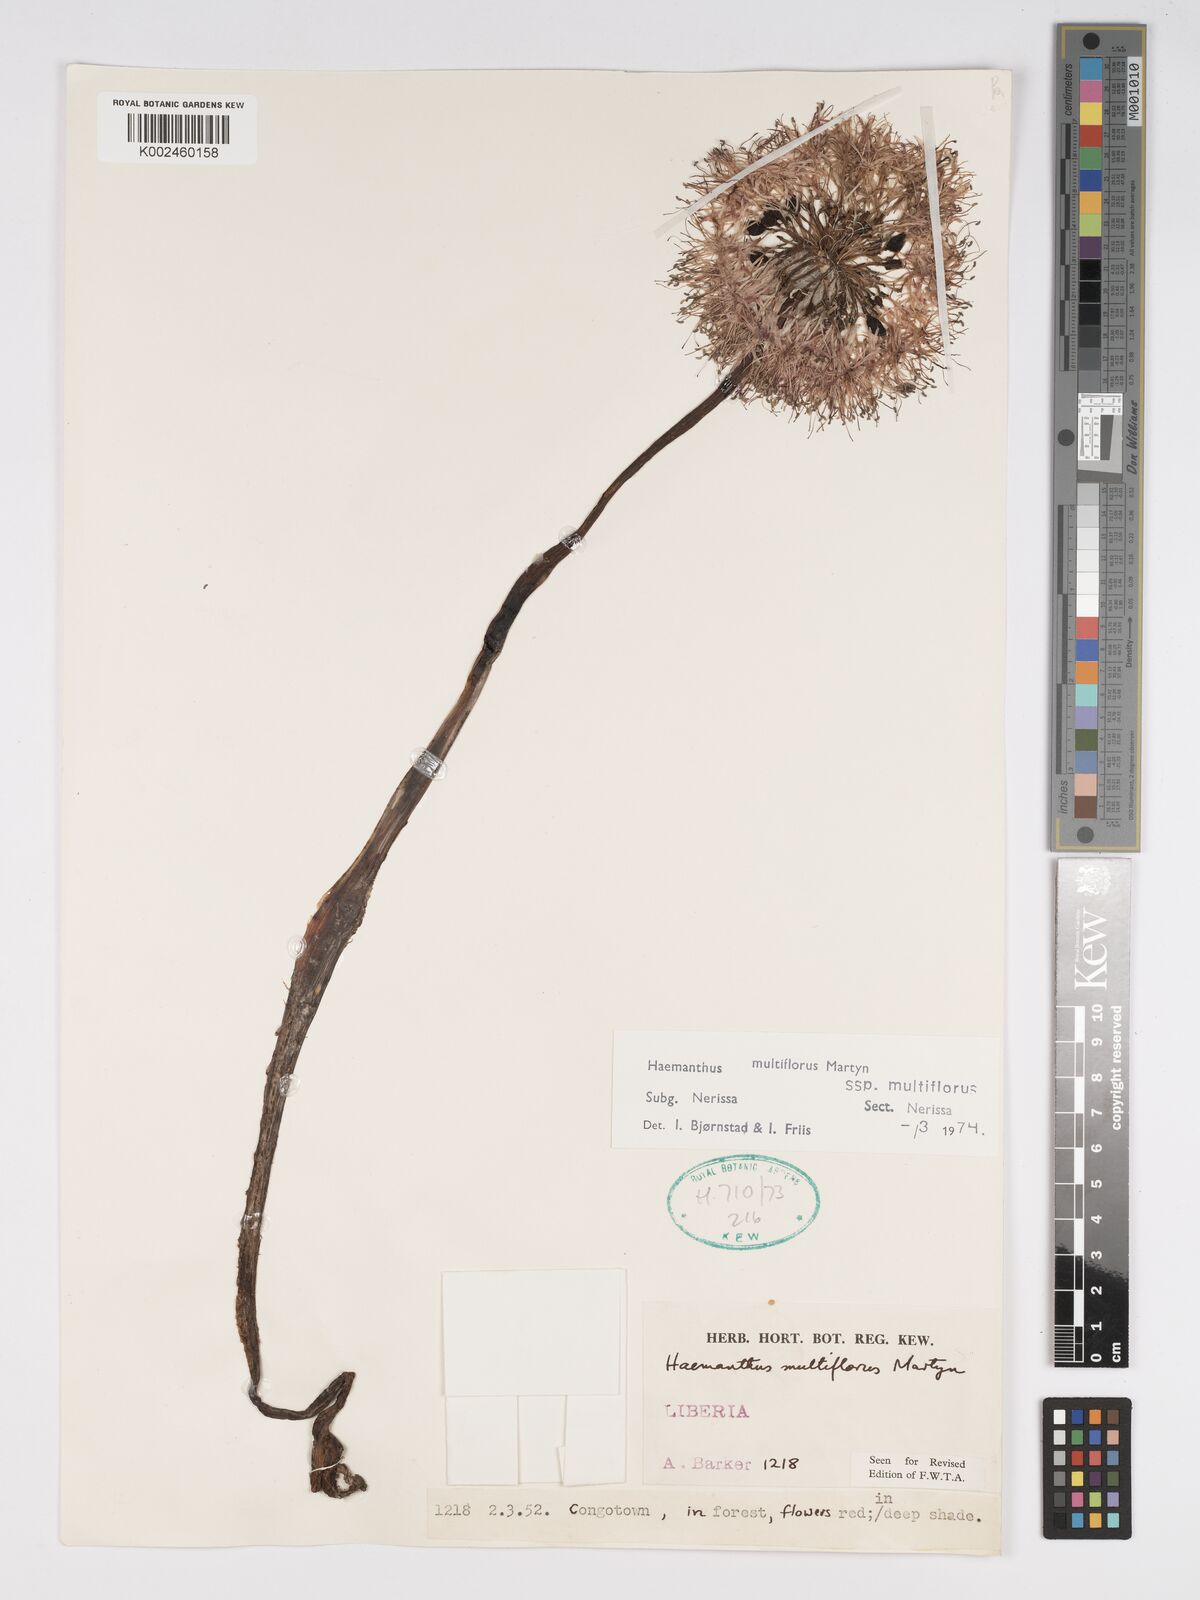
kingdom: Plantae
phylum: Tracheophyta
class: Liliopsida
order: Asparagales
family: Amaryllidaceae
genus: Scadoxus
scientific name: Scadoxus multiflorus
